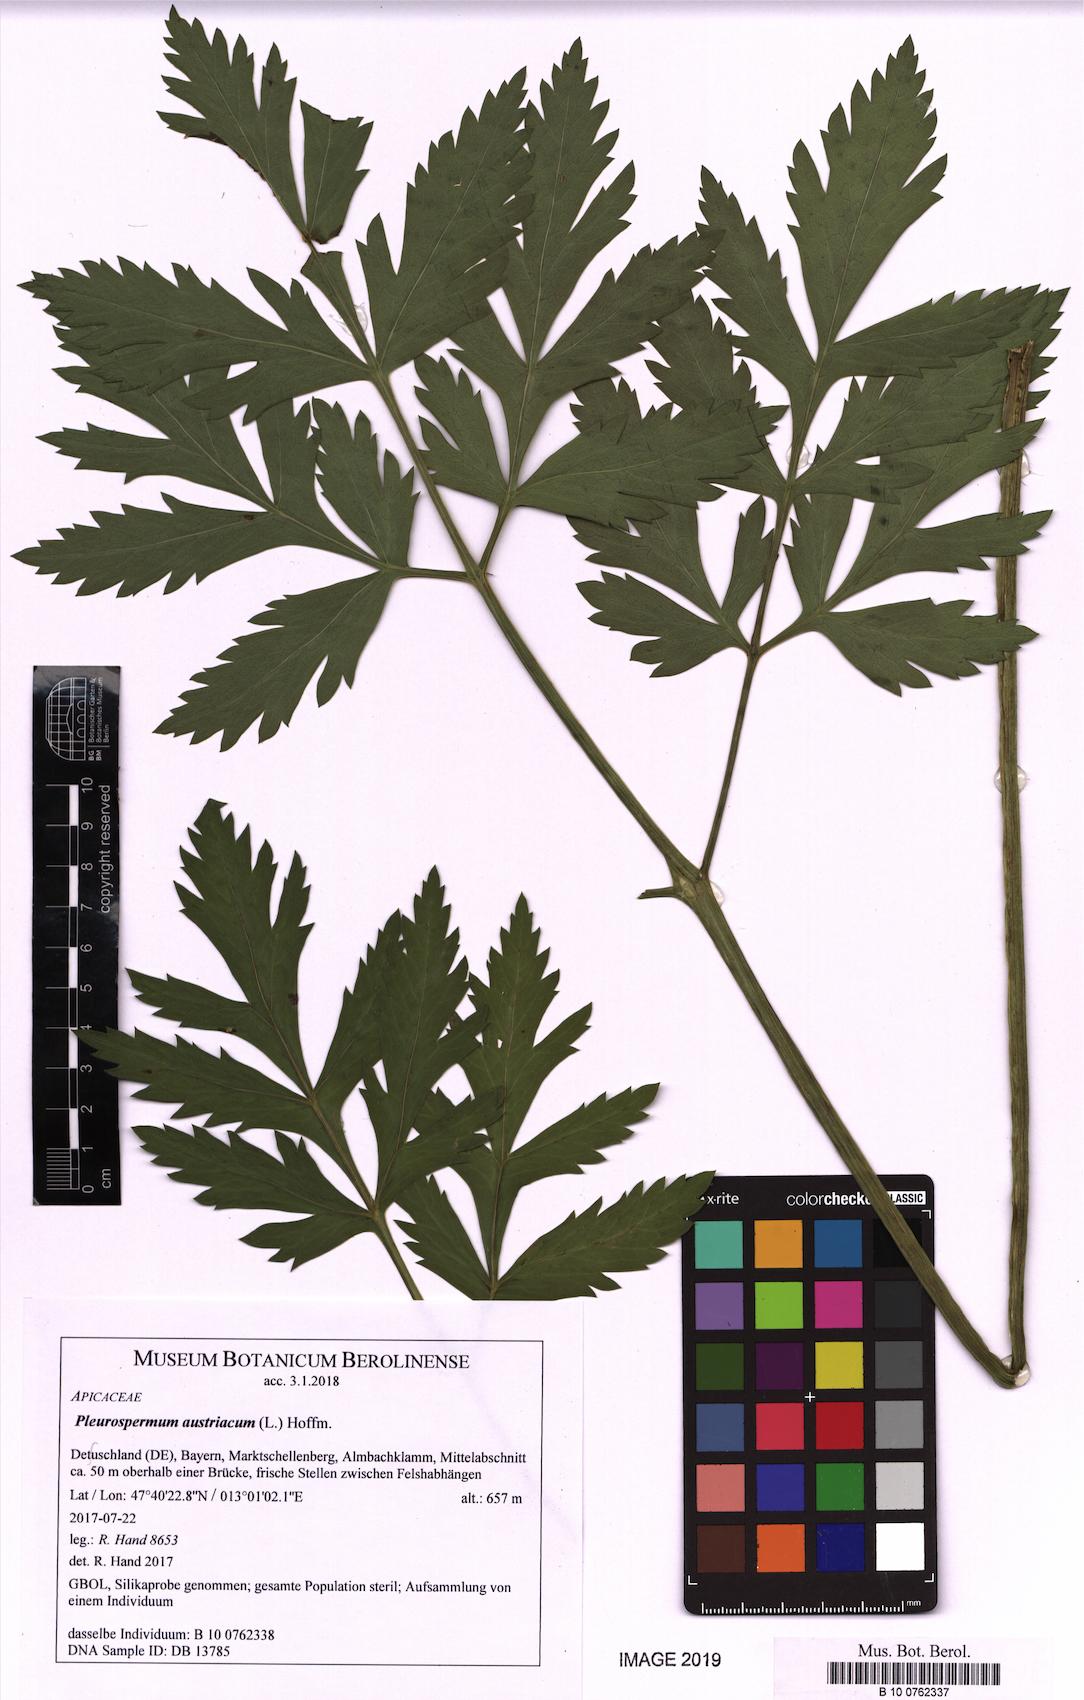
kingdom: Plantae
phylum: Tracheophyta
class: Magnoliopsida
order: Apiales
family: Apiaceae
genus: Pleurospermum
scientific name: Pleurospermum austriacum
